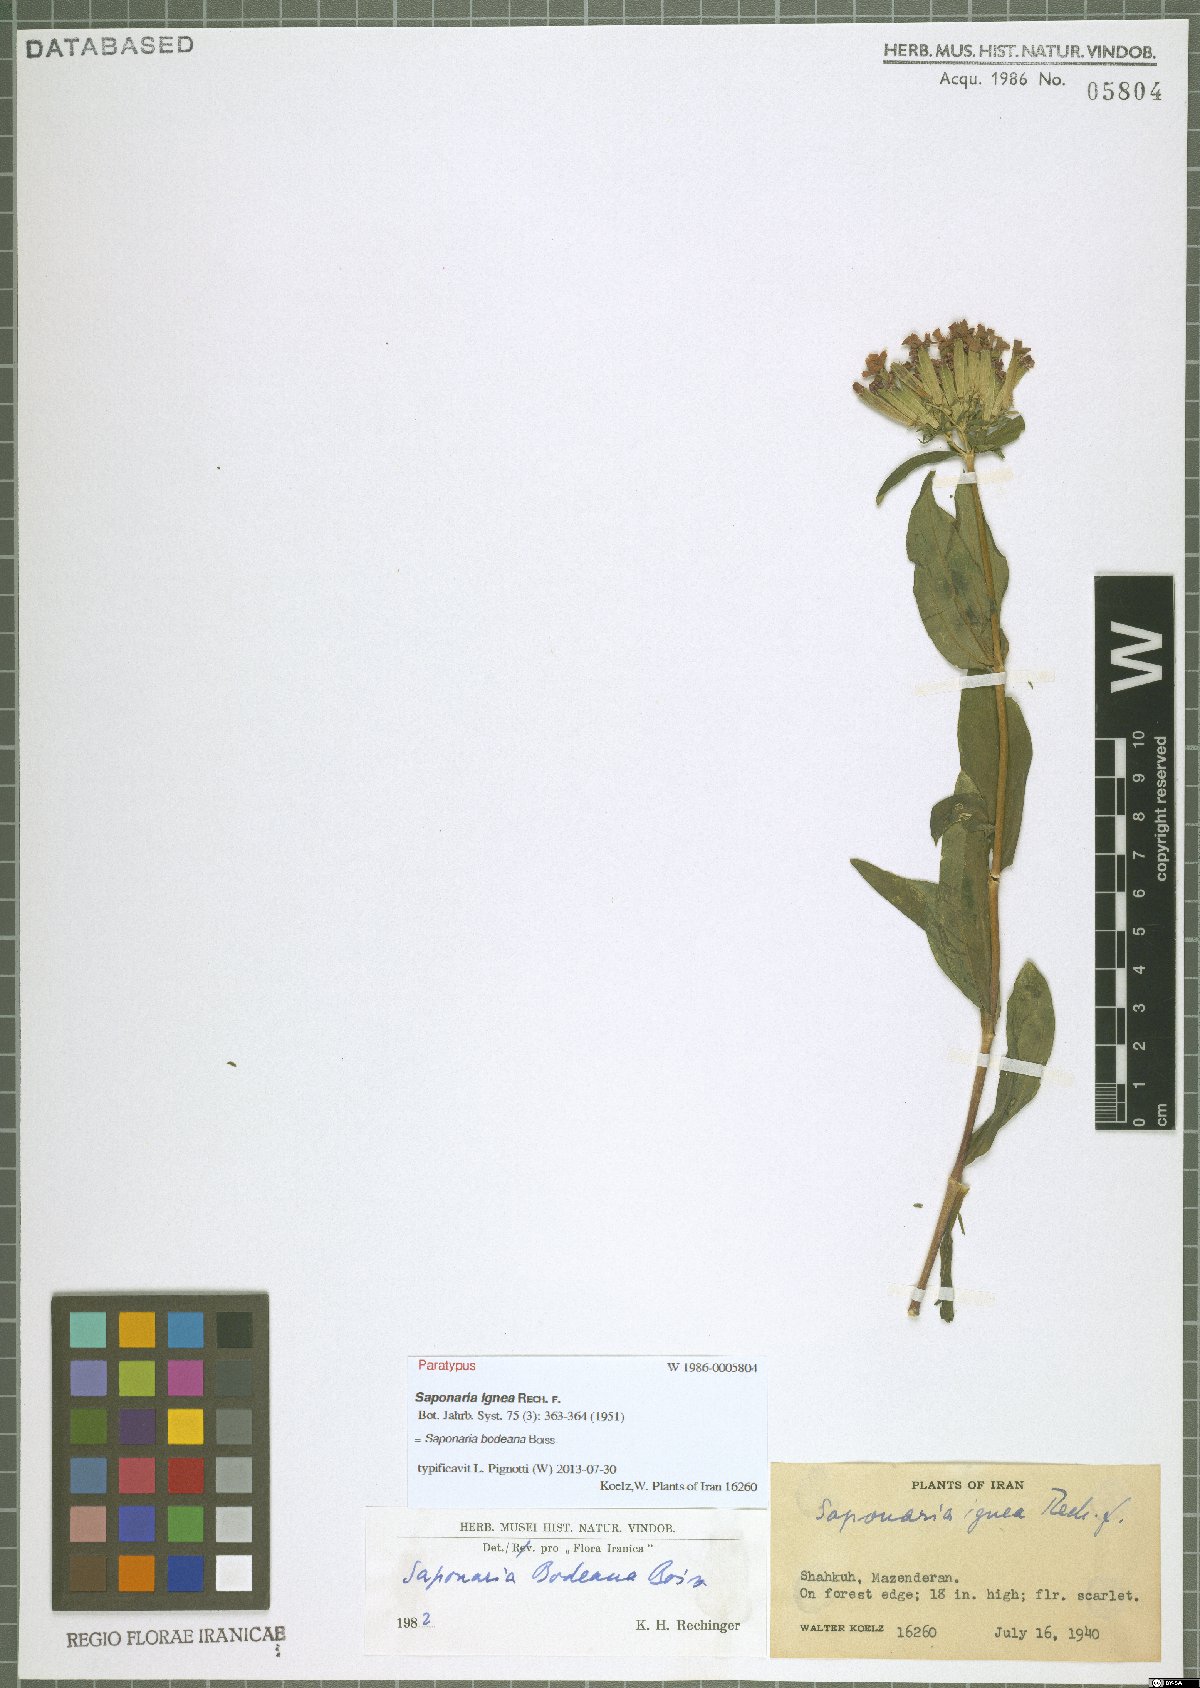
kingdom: Plantae
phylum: Tracheophyta
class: Magnoliopsida
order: Caryophyllales
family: Caryophyllaceae
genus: Saponaria
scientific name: Saponaria bodeana
